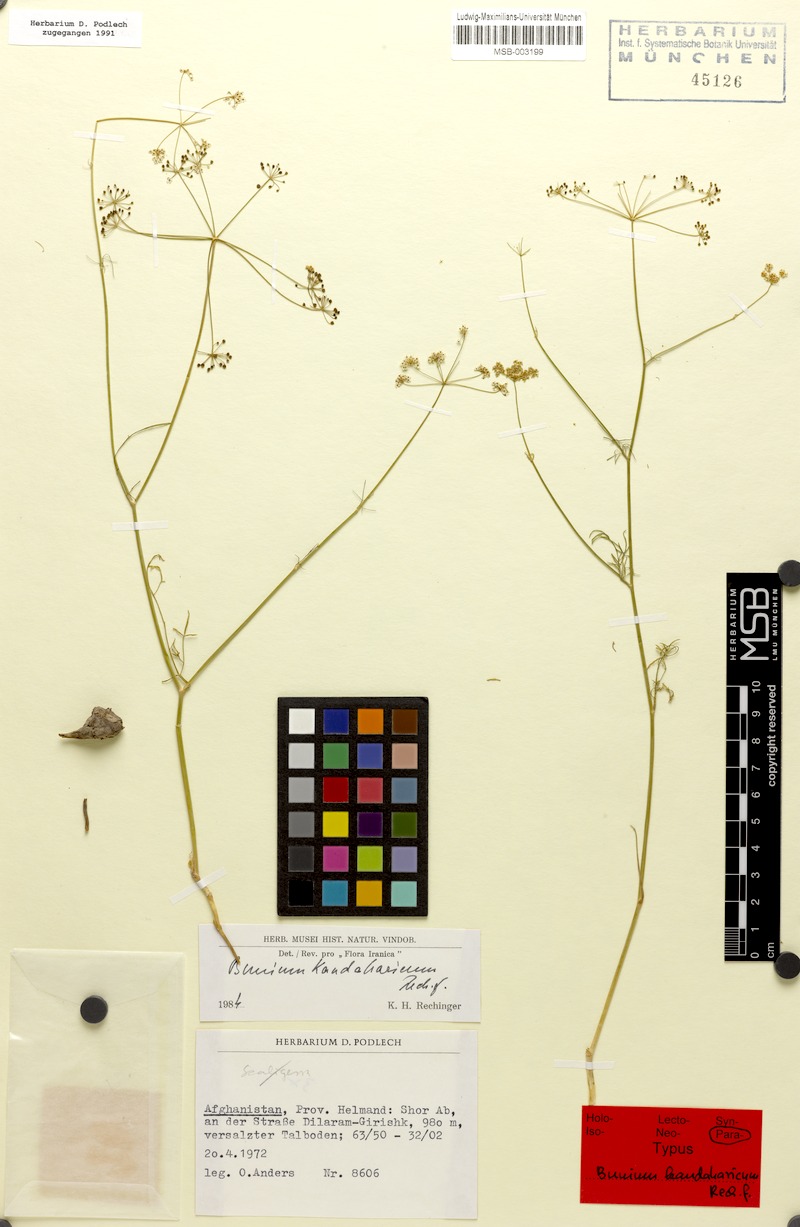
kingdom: Plantae
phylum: Tracheophyta
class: Magnoliopsida
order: Apiales
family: Apiaceae
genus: Elwendia
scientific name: Elwendia stewartiana
